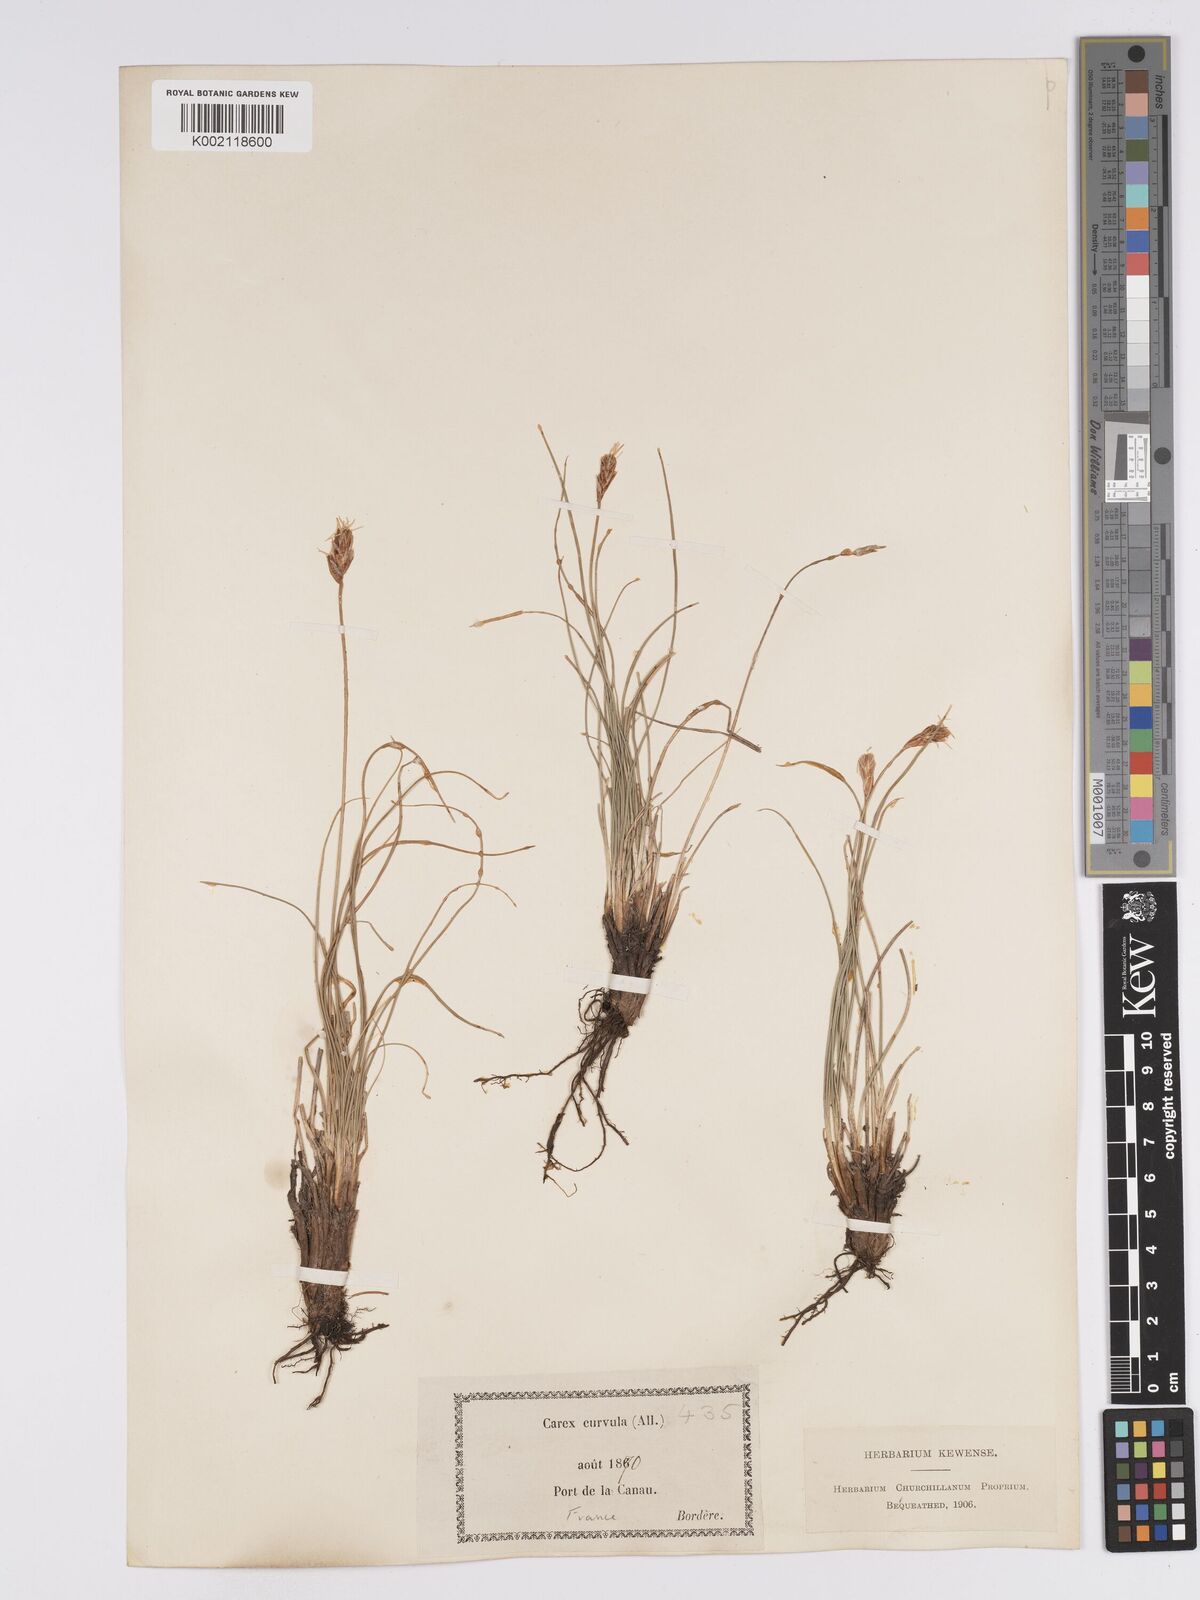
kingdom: Plantae
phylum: Tracheophyta
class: Liliopsida
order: Poales
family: Cyperaceae
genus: Carex
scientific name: Carex curvula
